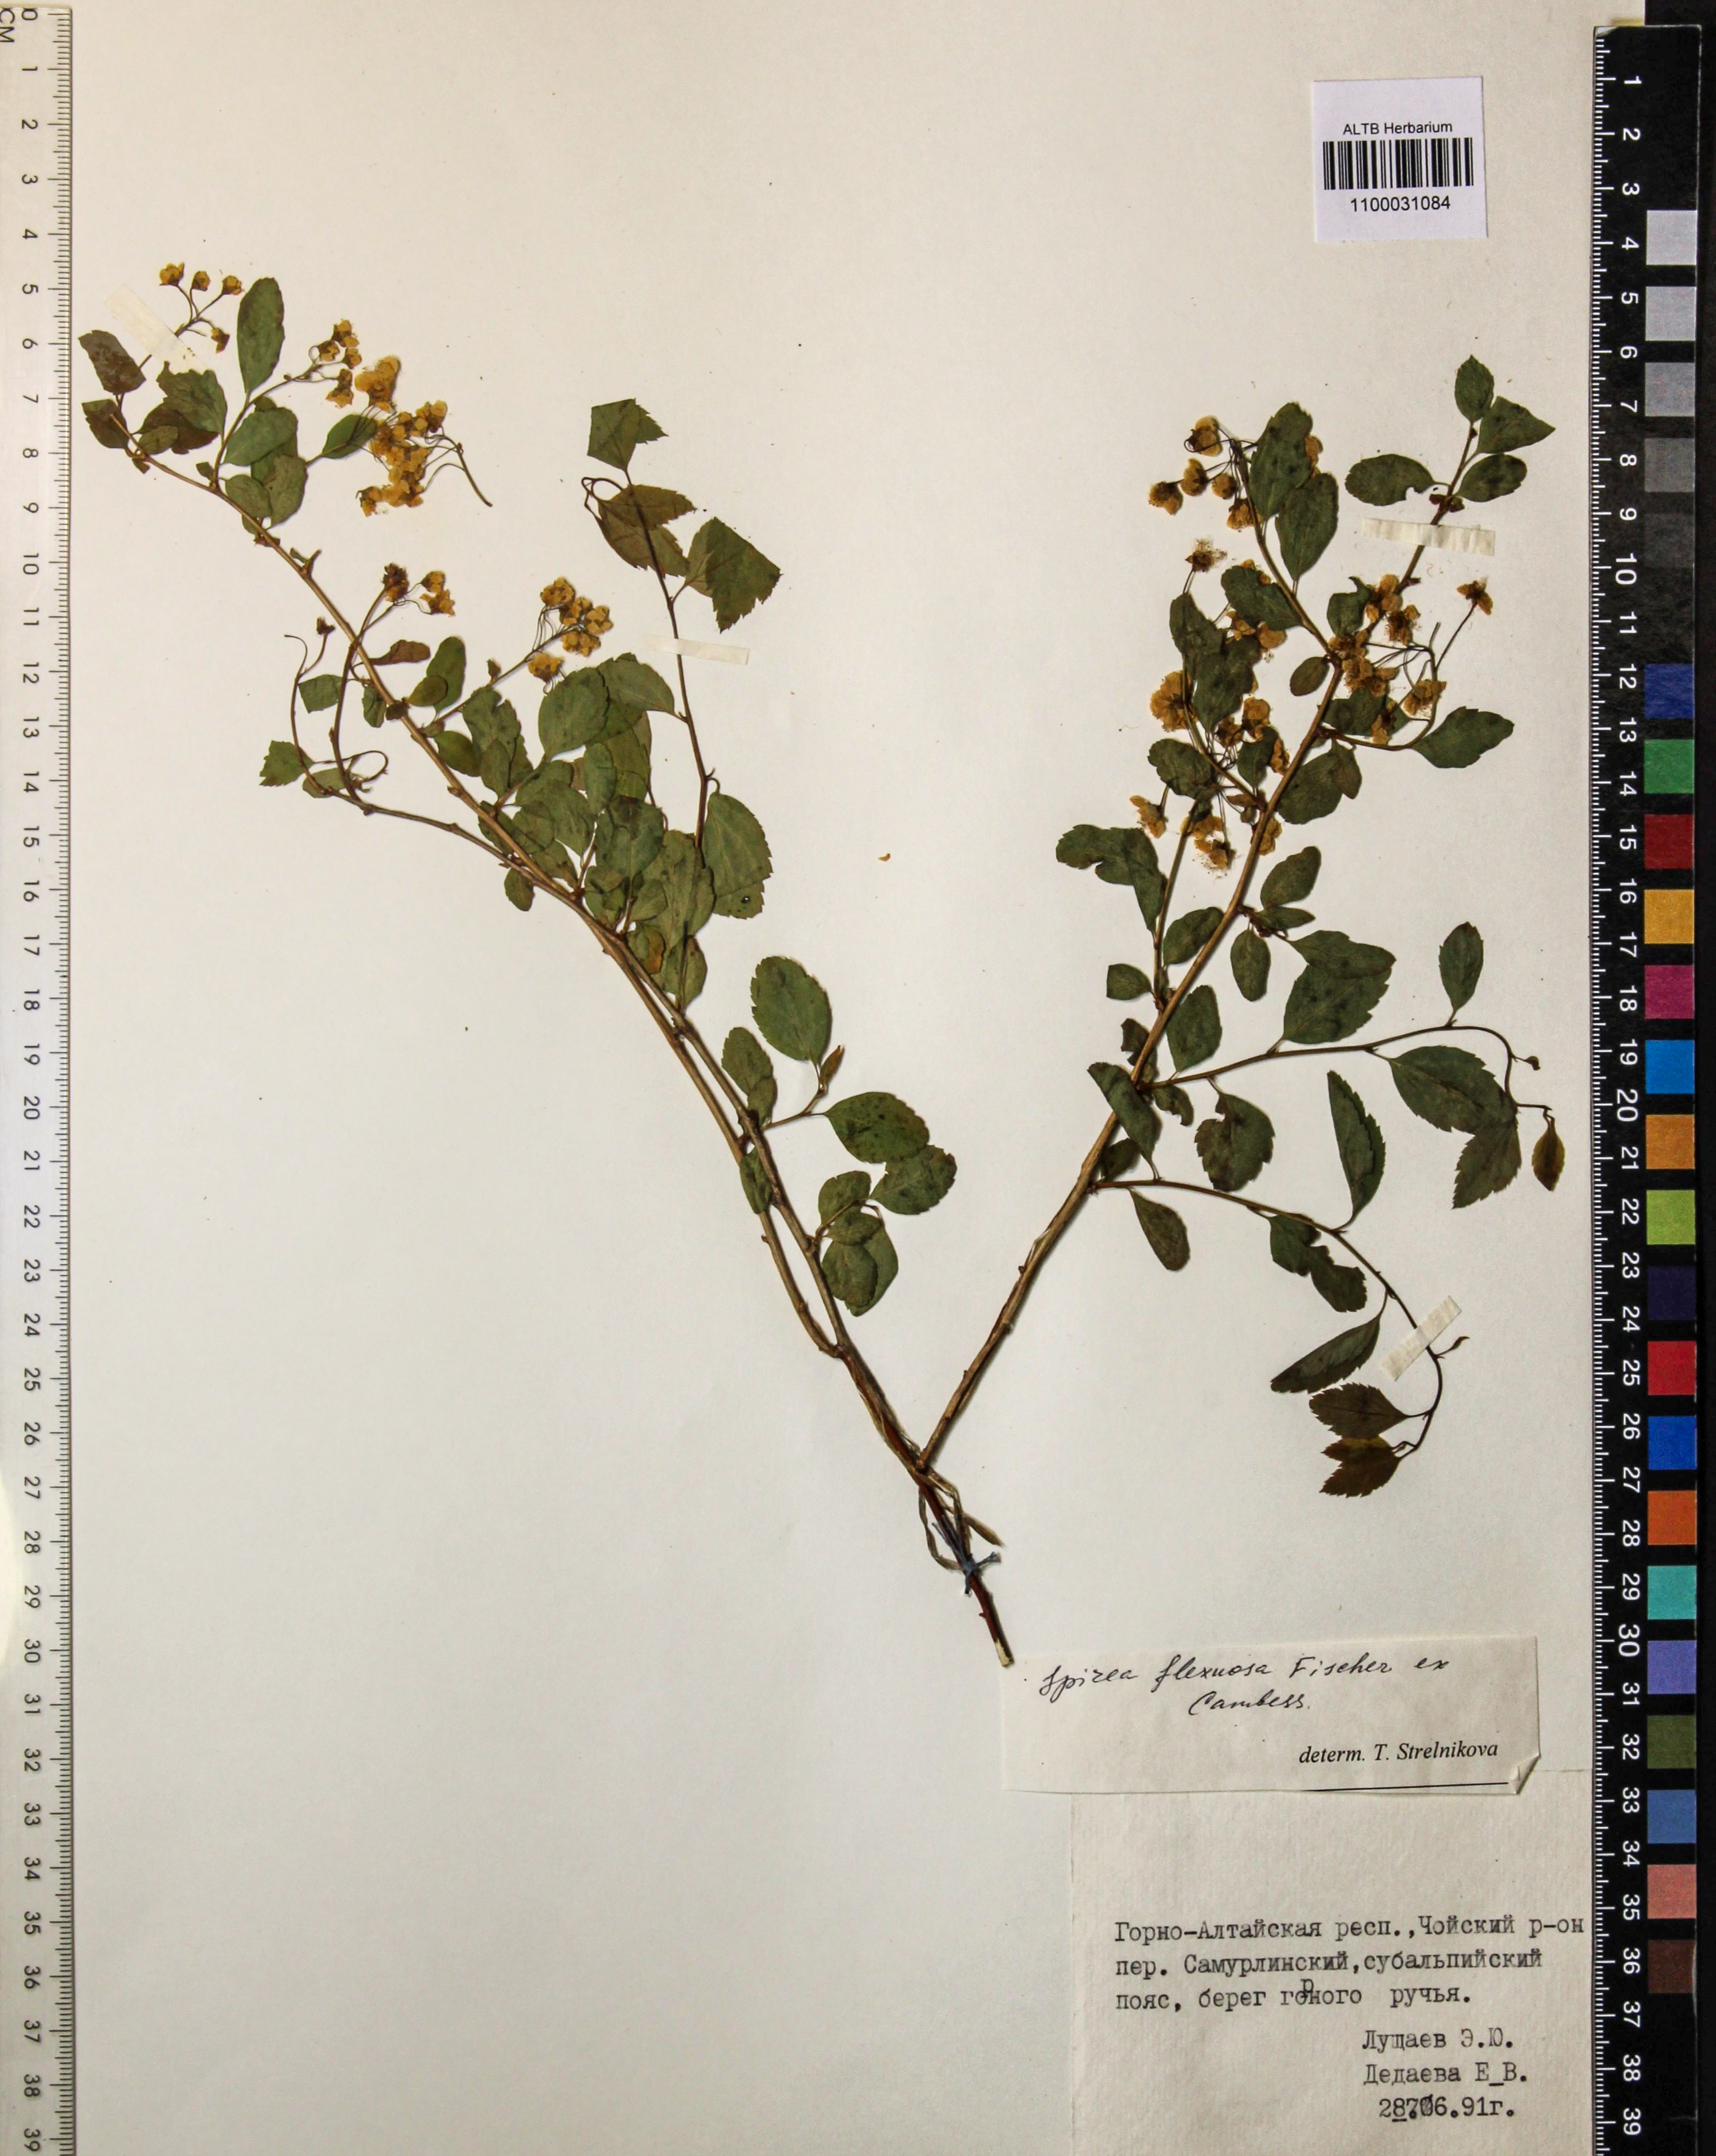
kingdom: Plantae
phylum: Tracheophyta
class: Magnoliopsida
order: Rosales
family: Rosaceae
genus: Spiraea
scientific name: Spiraea flexuosa
